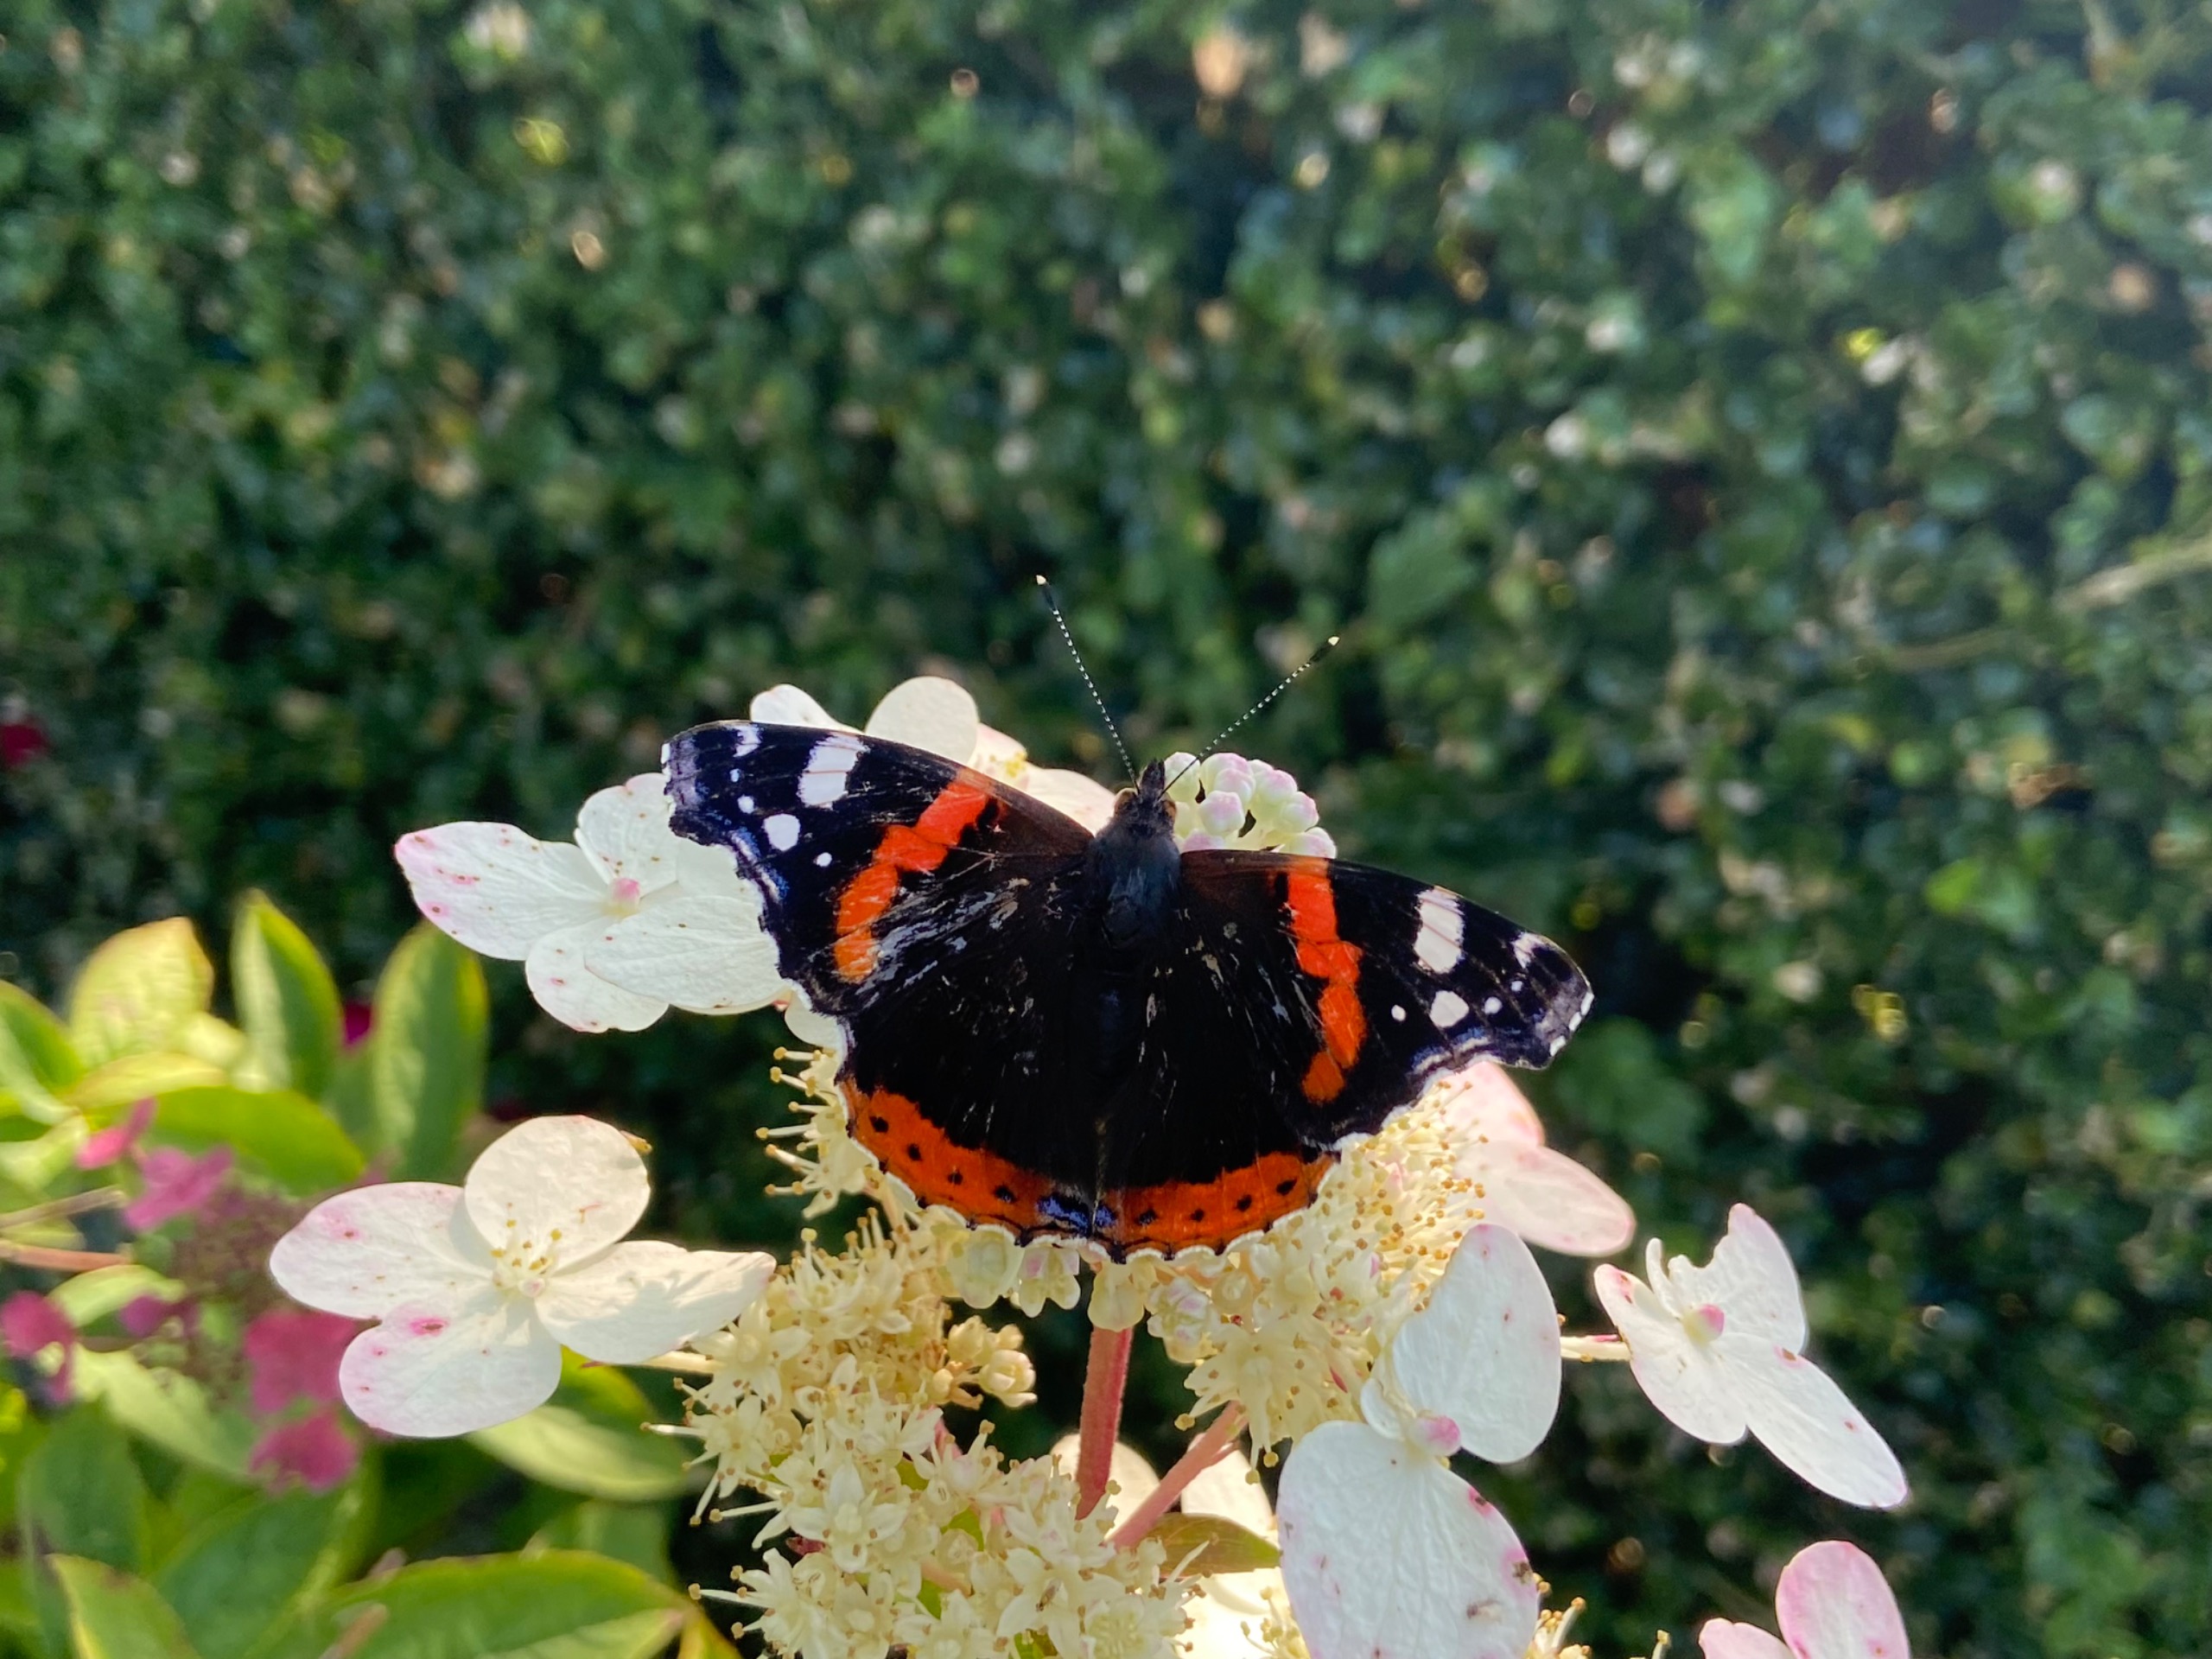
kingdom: Animalia
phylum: Arthropoda
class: Insecta
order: Lepidoptera
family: Nymphalidae
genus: Vanessa
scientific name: Vanessa atalanta
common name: Admiral
